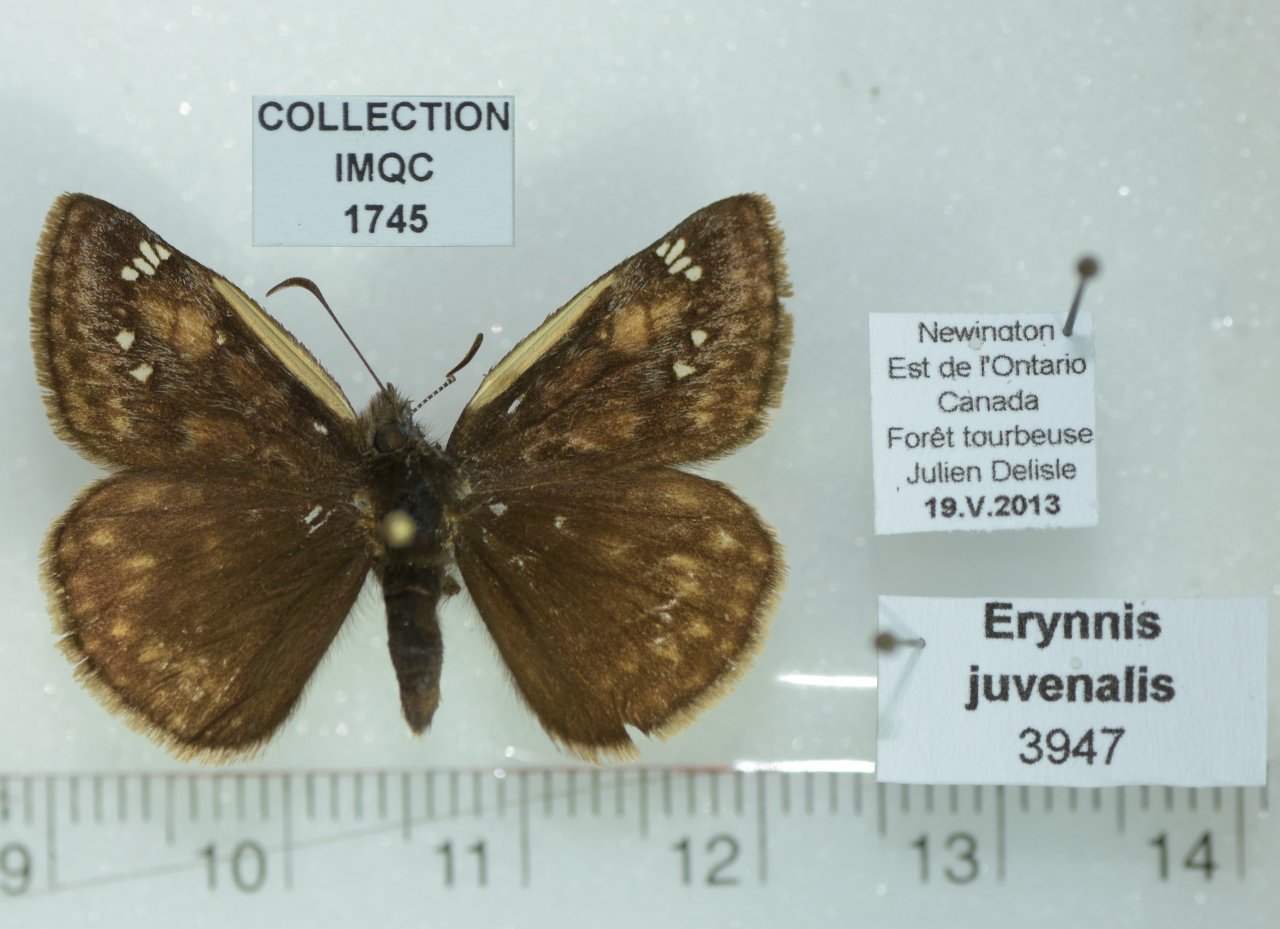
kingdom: Animalia
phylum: Arthropoda
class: Insecta
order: Lepidoptera
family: Hesperiidae
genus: Gesta
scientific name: Gesta
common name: Juvenal's Duskywing
